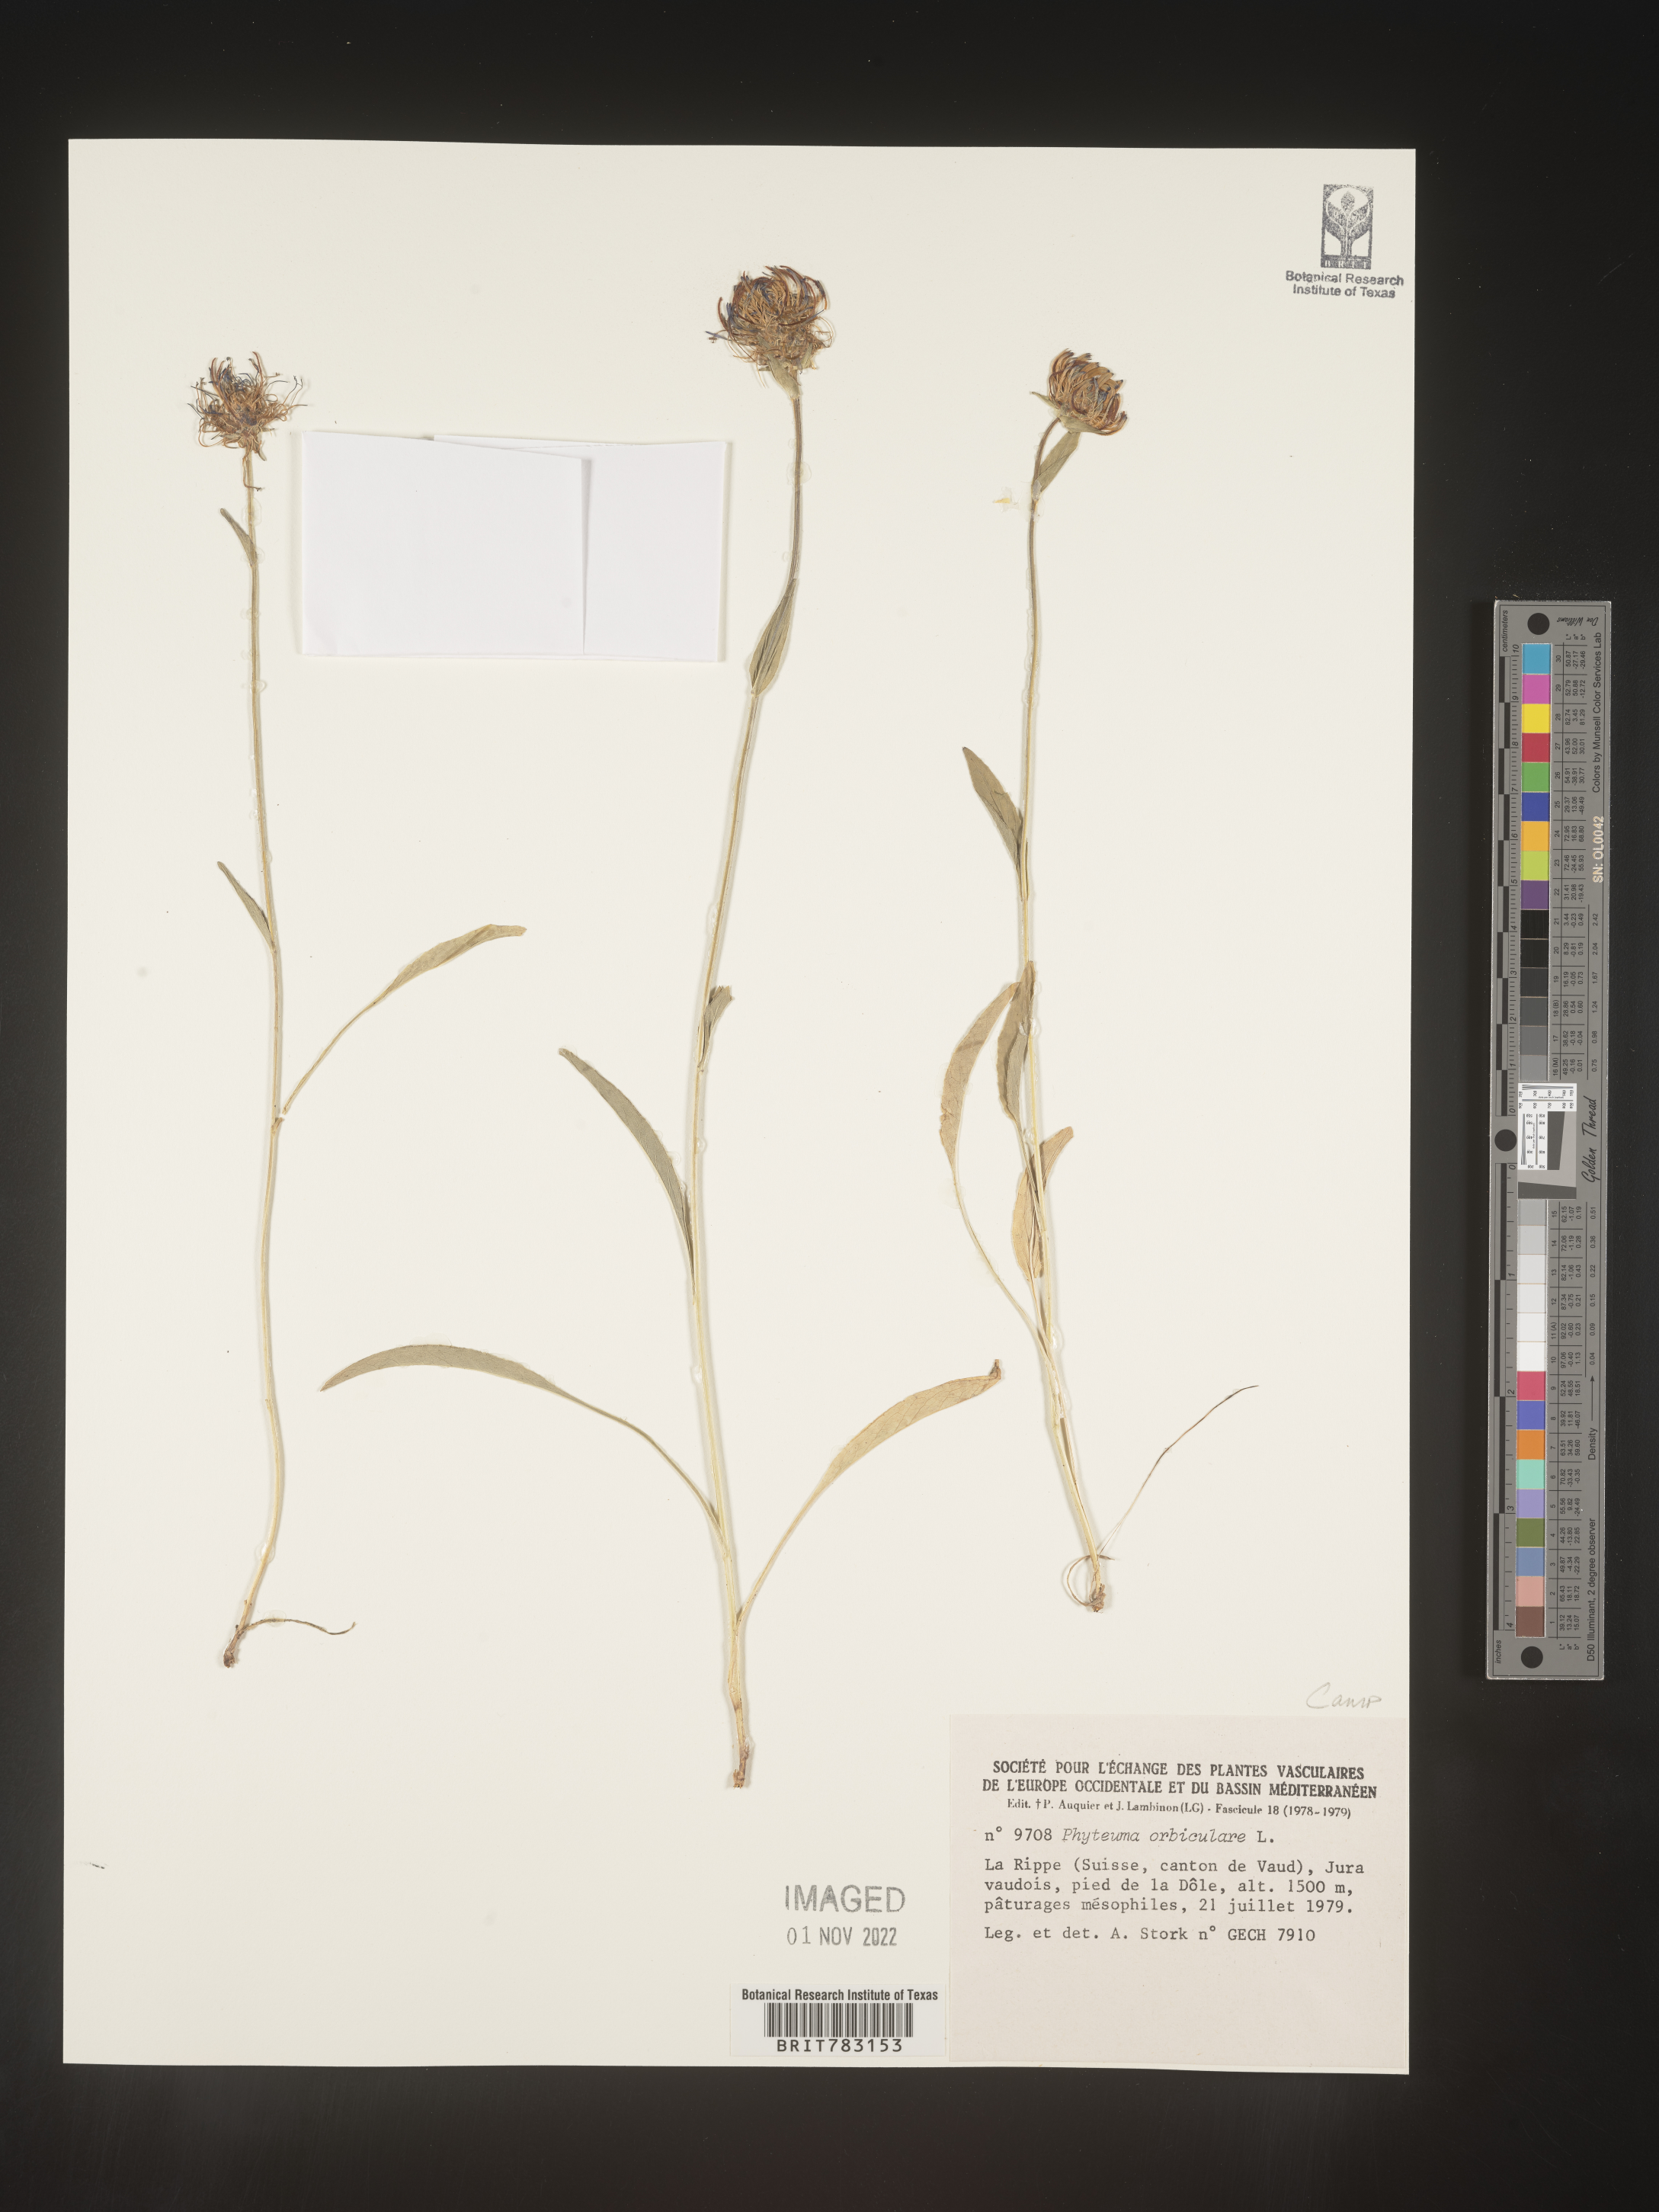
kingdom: Plantae
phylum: Tracheophyta
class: Magnoliopsida
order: Asterales
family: Campanulaceae
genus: Phyteuma
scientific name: Phyteuma
